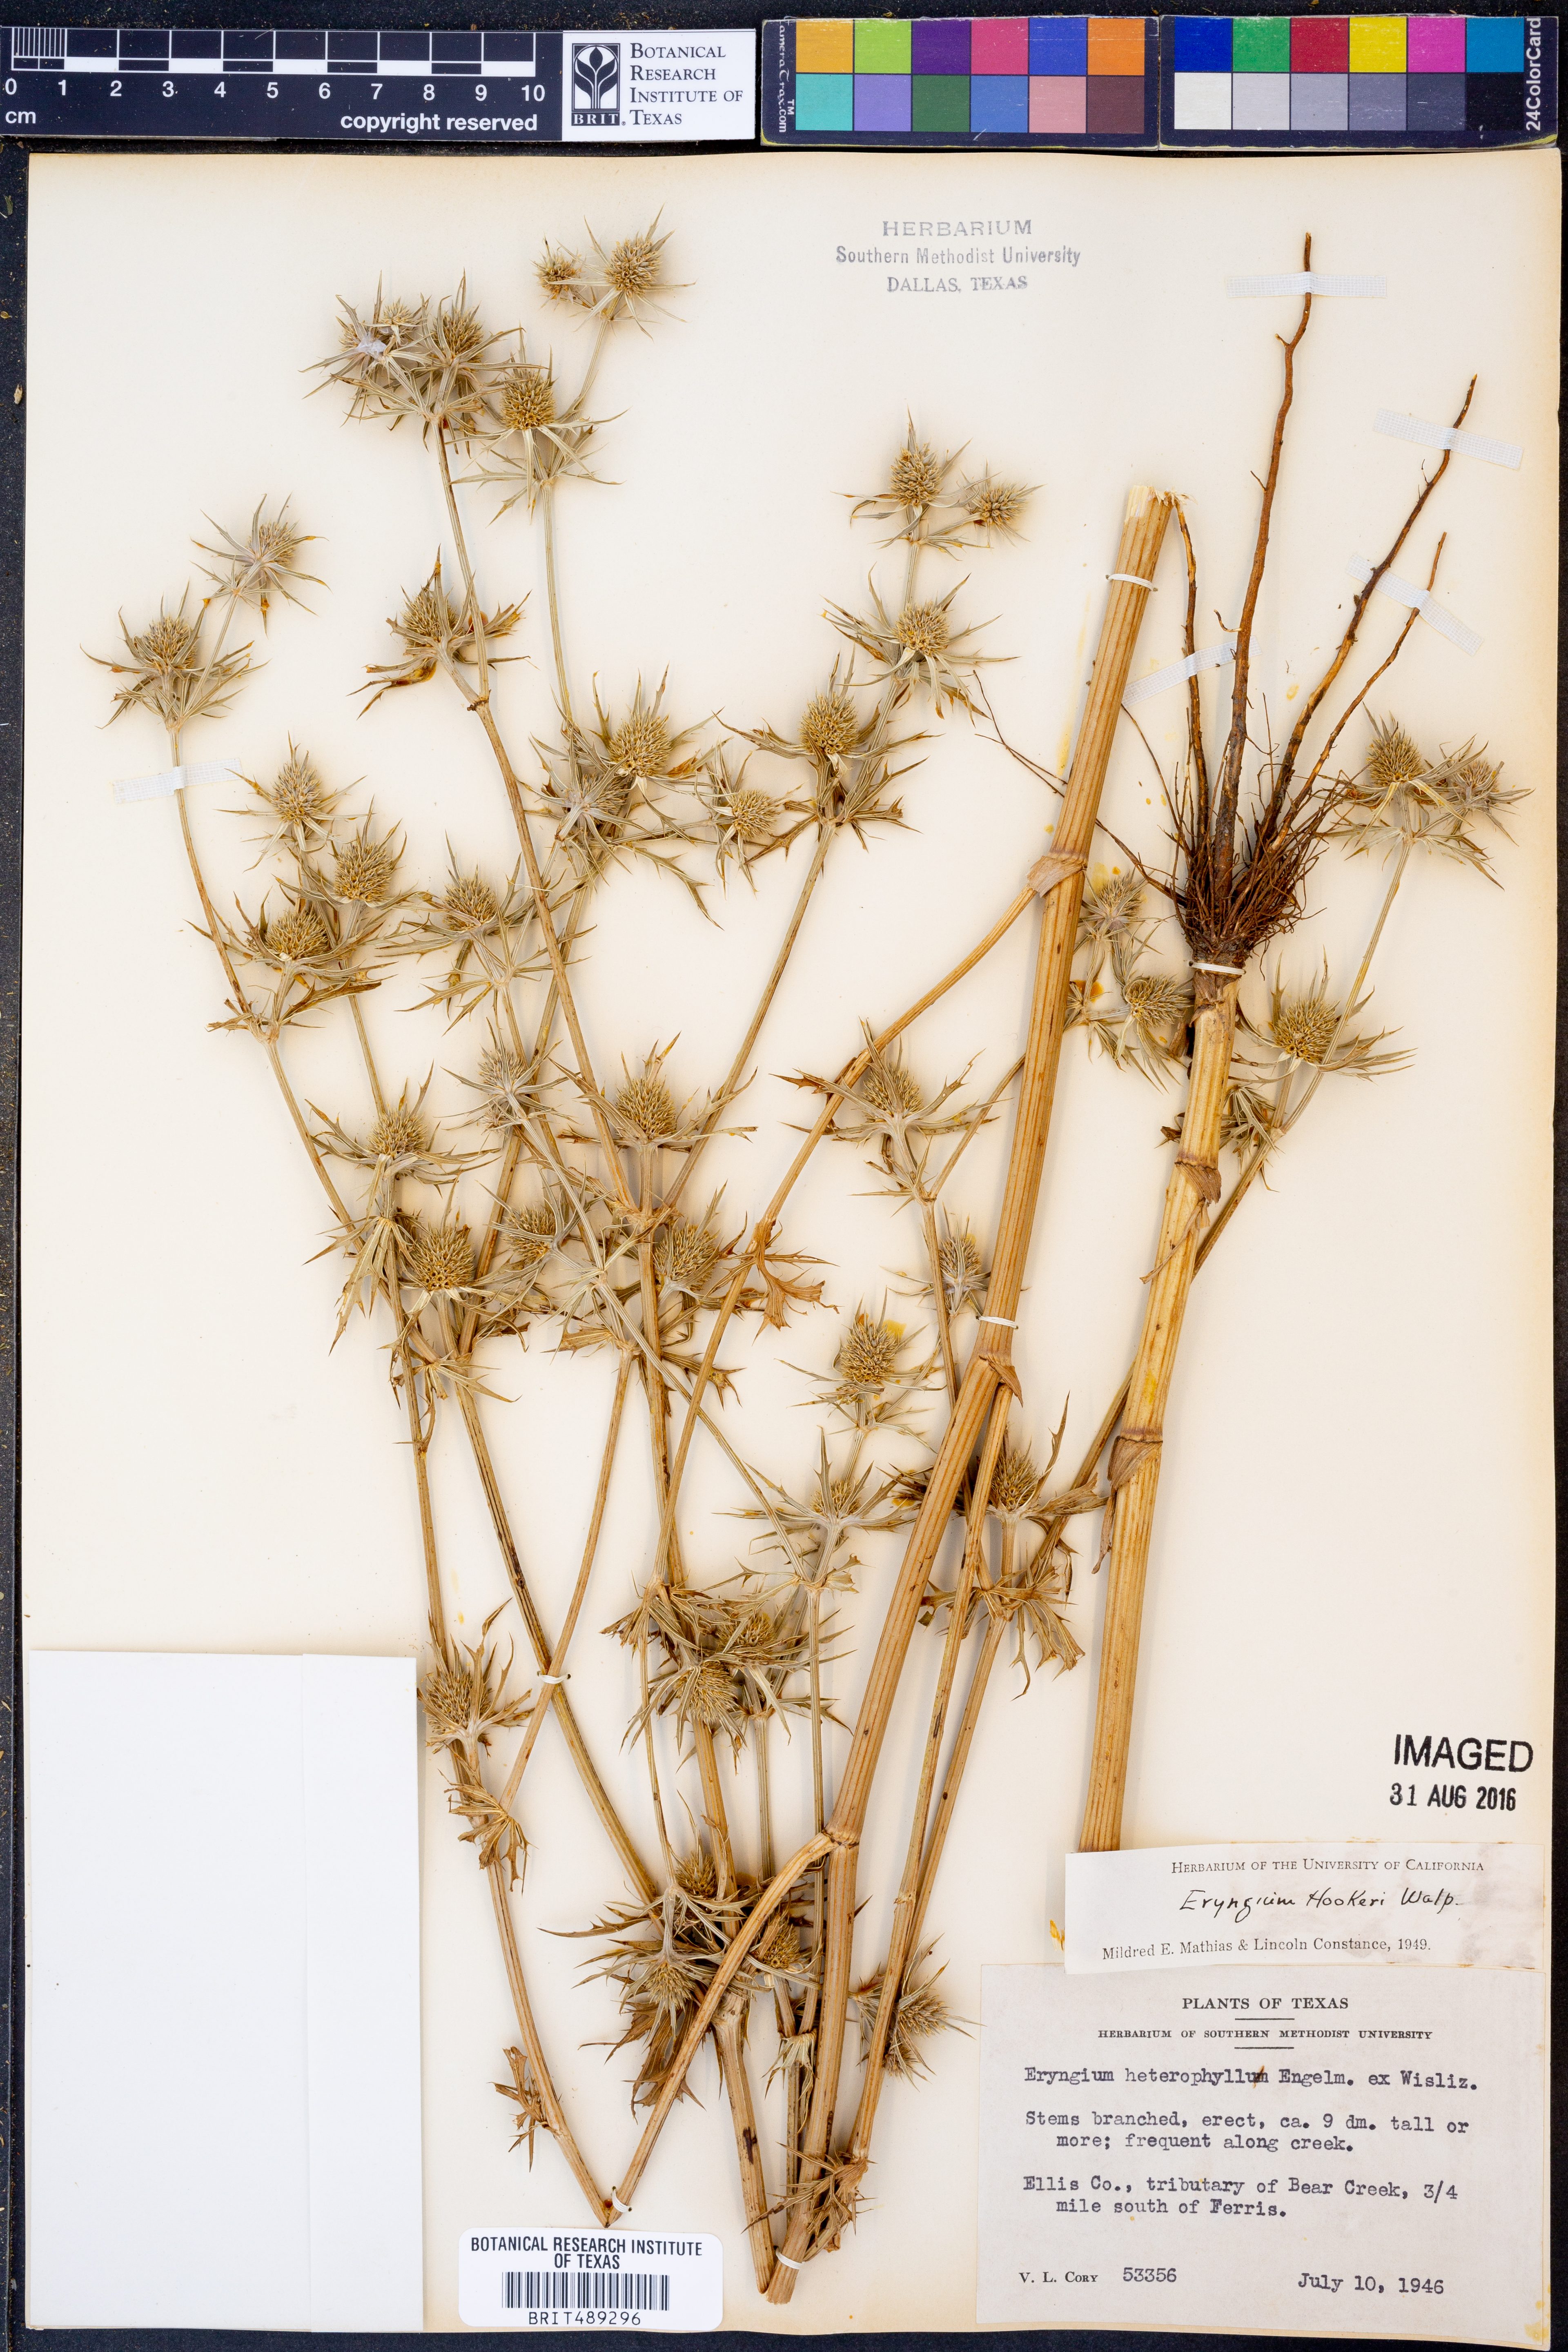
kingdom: Plantae
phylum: Tracheophyta
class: Magnoliopsida
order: Apiales
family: Apiaceae
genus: Eryngium
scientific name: Eryngium hookeri
